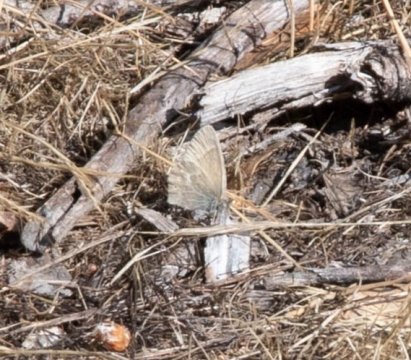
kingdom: Animalia
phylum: Arthropoda
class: Insecta
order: Lepidoptera
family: Nymphalidae
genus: Coenonympha
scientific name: Coenonympha tullia
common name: Large Heath
